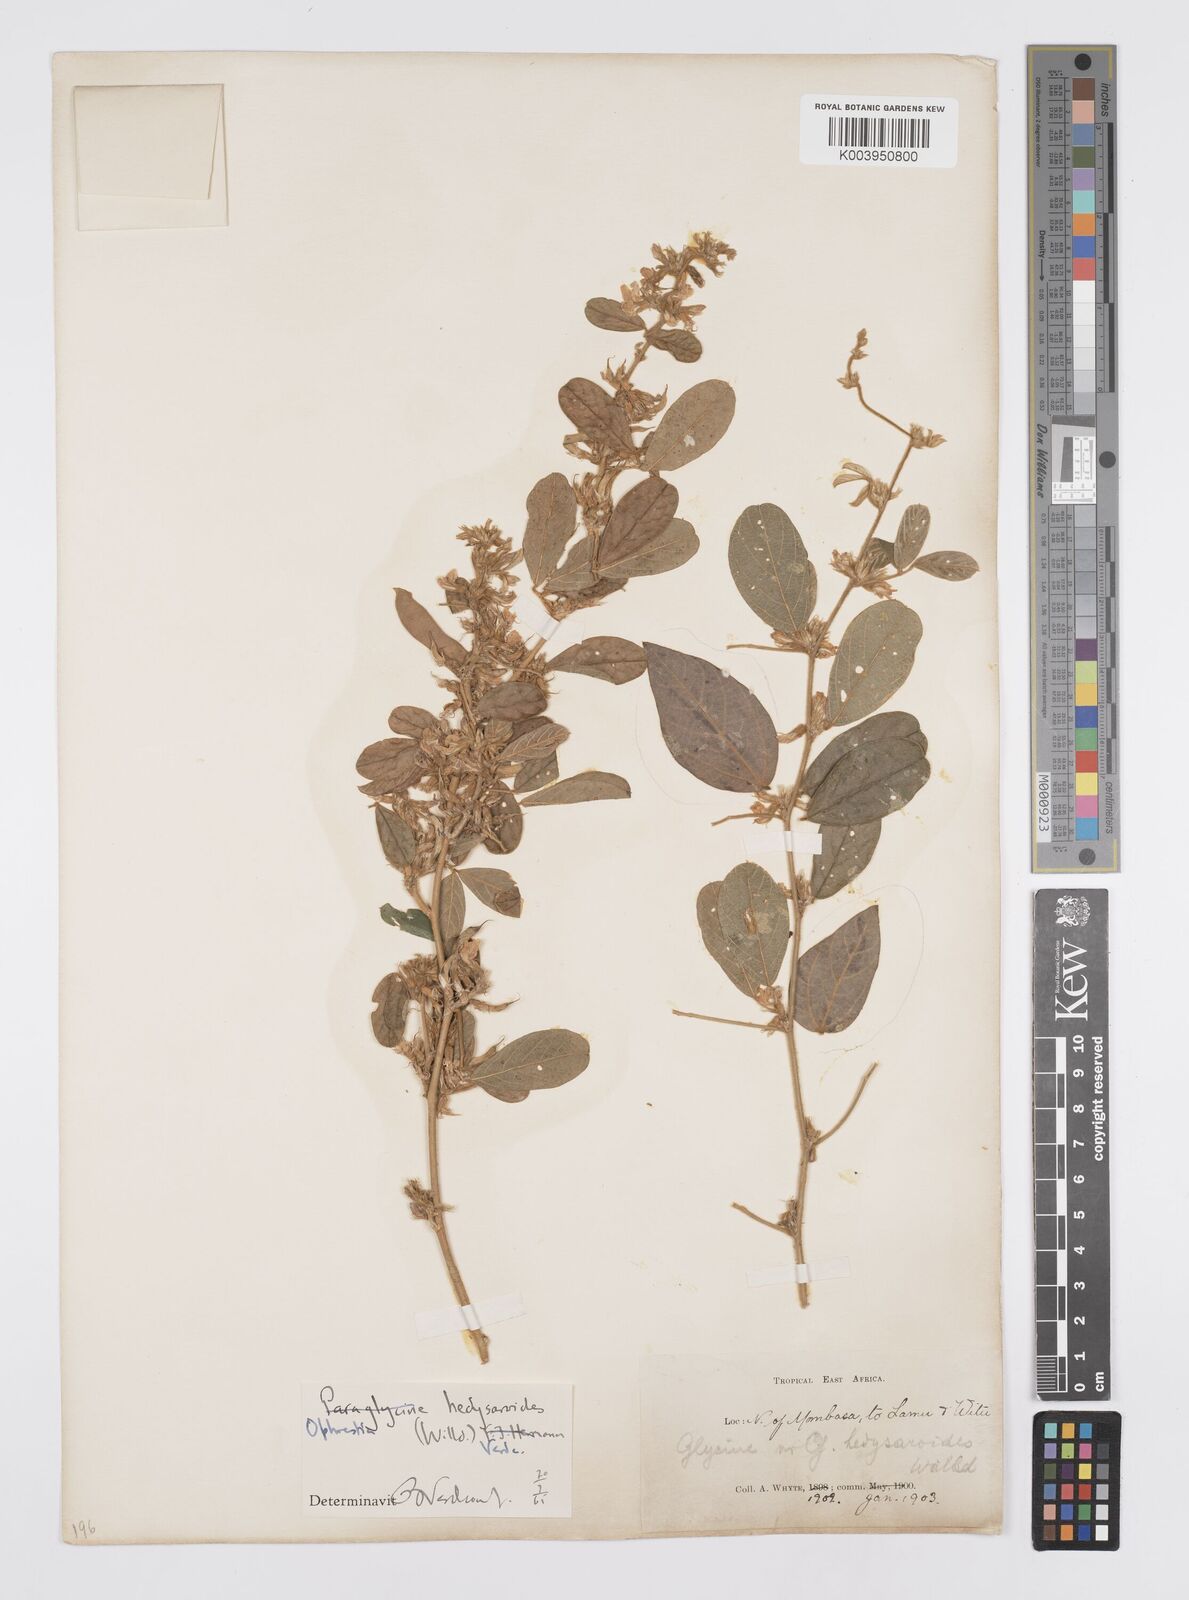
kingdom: Plantae
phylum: Tracheophyta
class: Magnoliopsida
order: Fabales
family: Fabaceae
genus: Ophrestia
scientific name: Ophrestia hedysaroides
